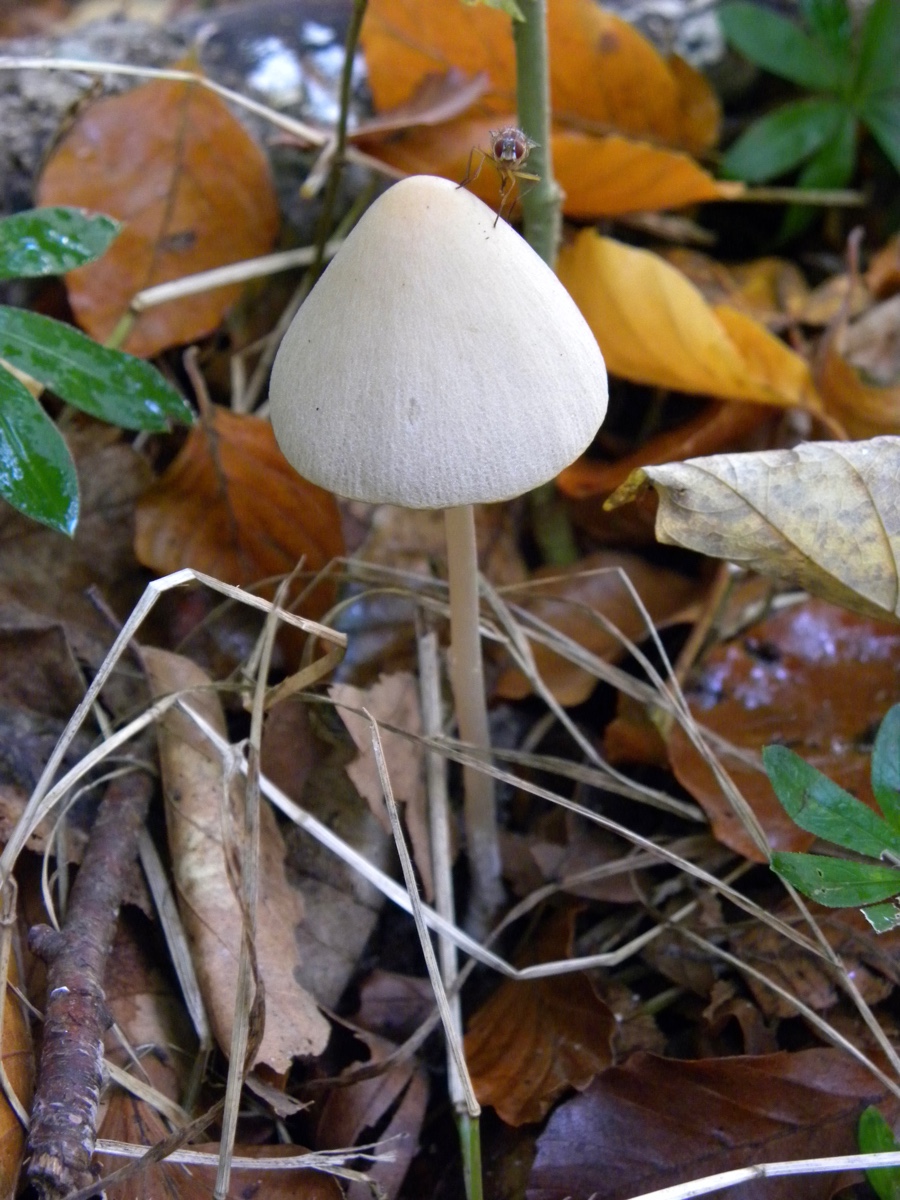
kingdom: Fungi
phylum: Basidiomycota
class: Agaricomycetes
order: Agaricales
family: Psathyrellaceae
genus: Parasola
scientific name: Parasola conopilea
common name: kegle-hjulhat
